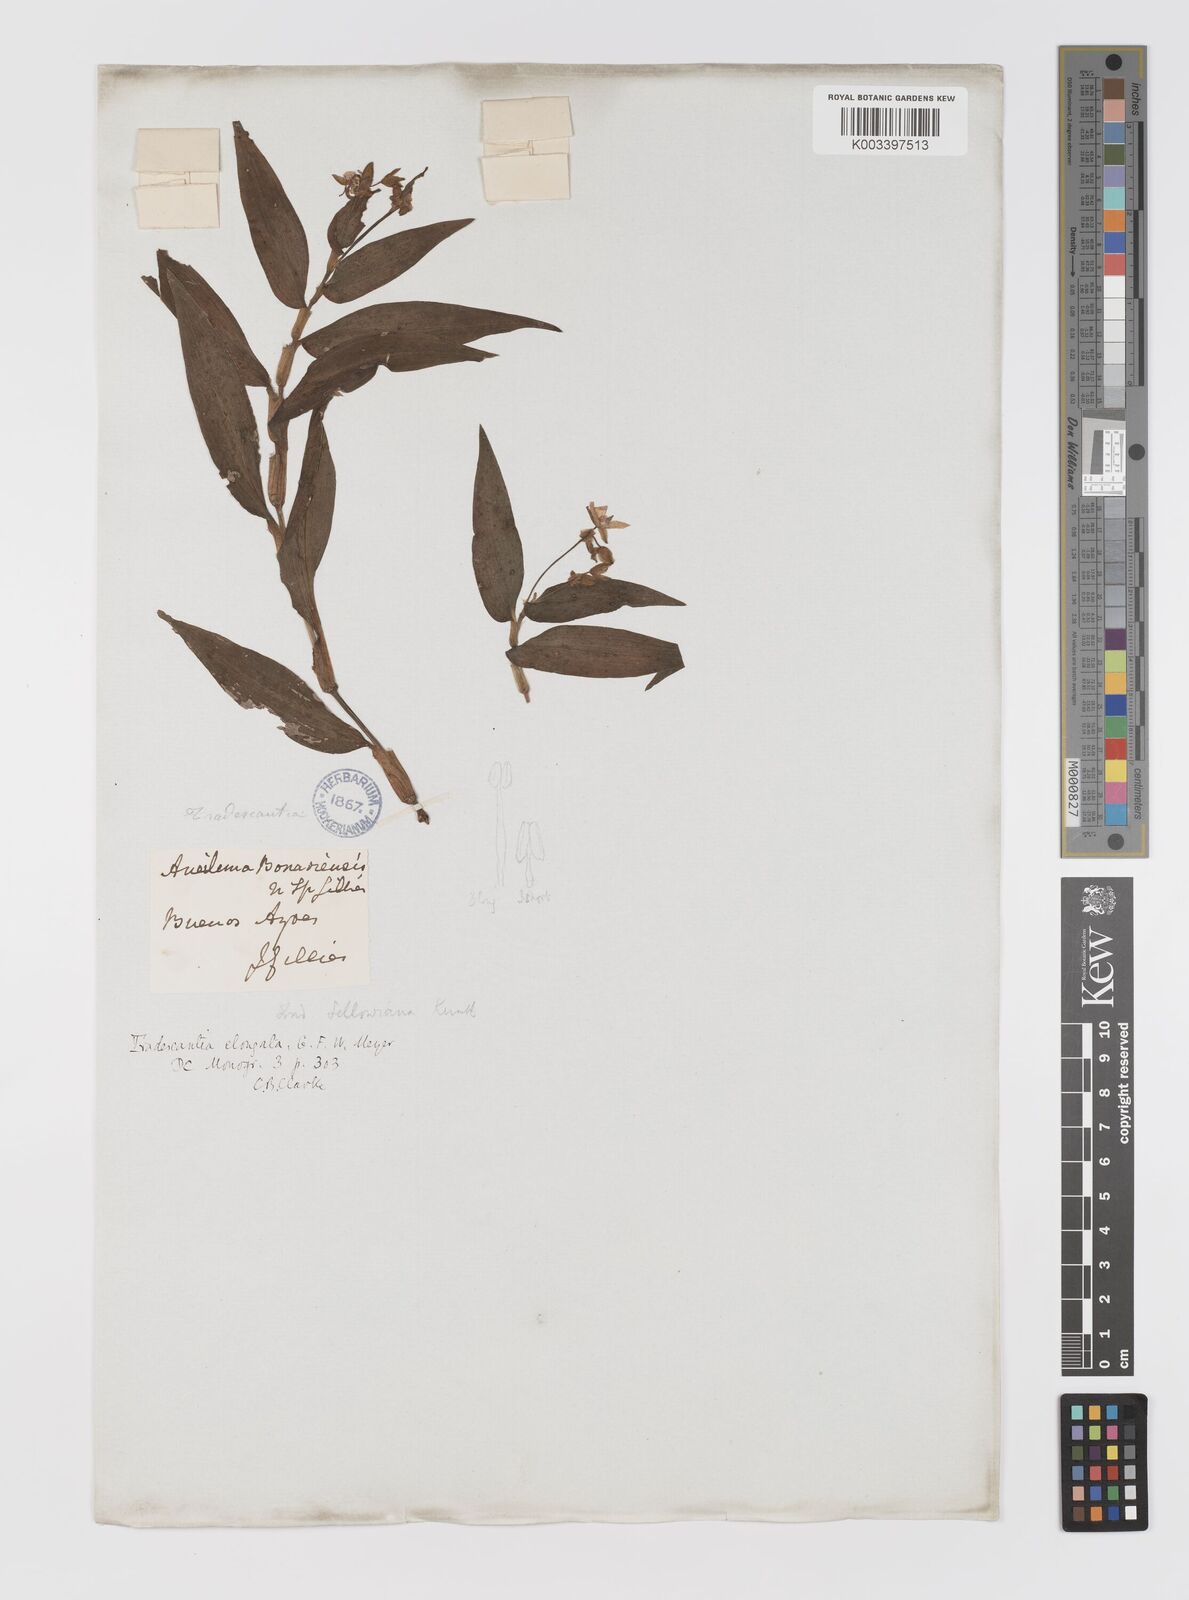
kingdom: Plantae
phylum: Tracheophyta
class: Liliopsida
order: Commelinales
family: Commelinaceae
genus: Callisia
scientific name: Callisia serrulata
